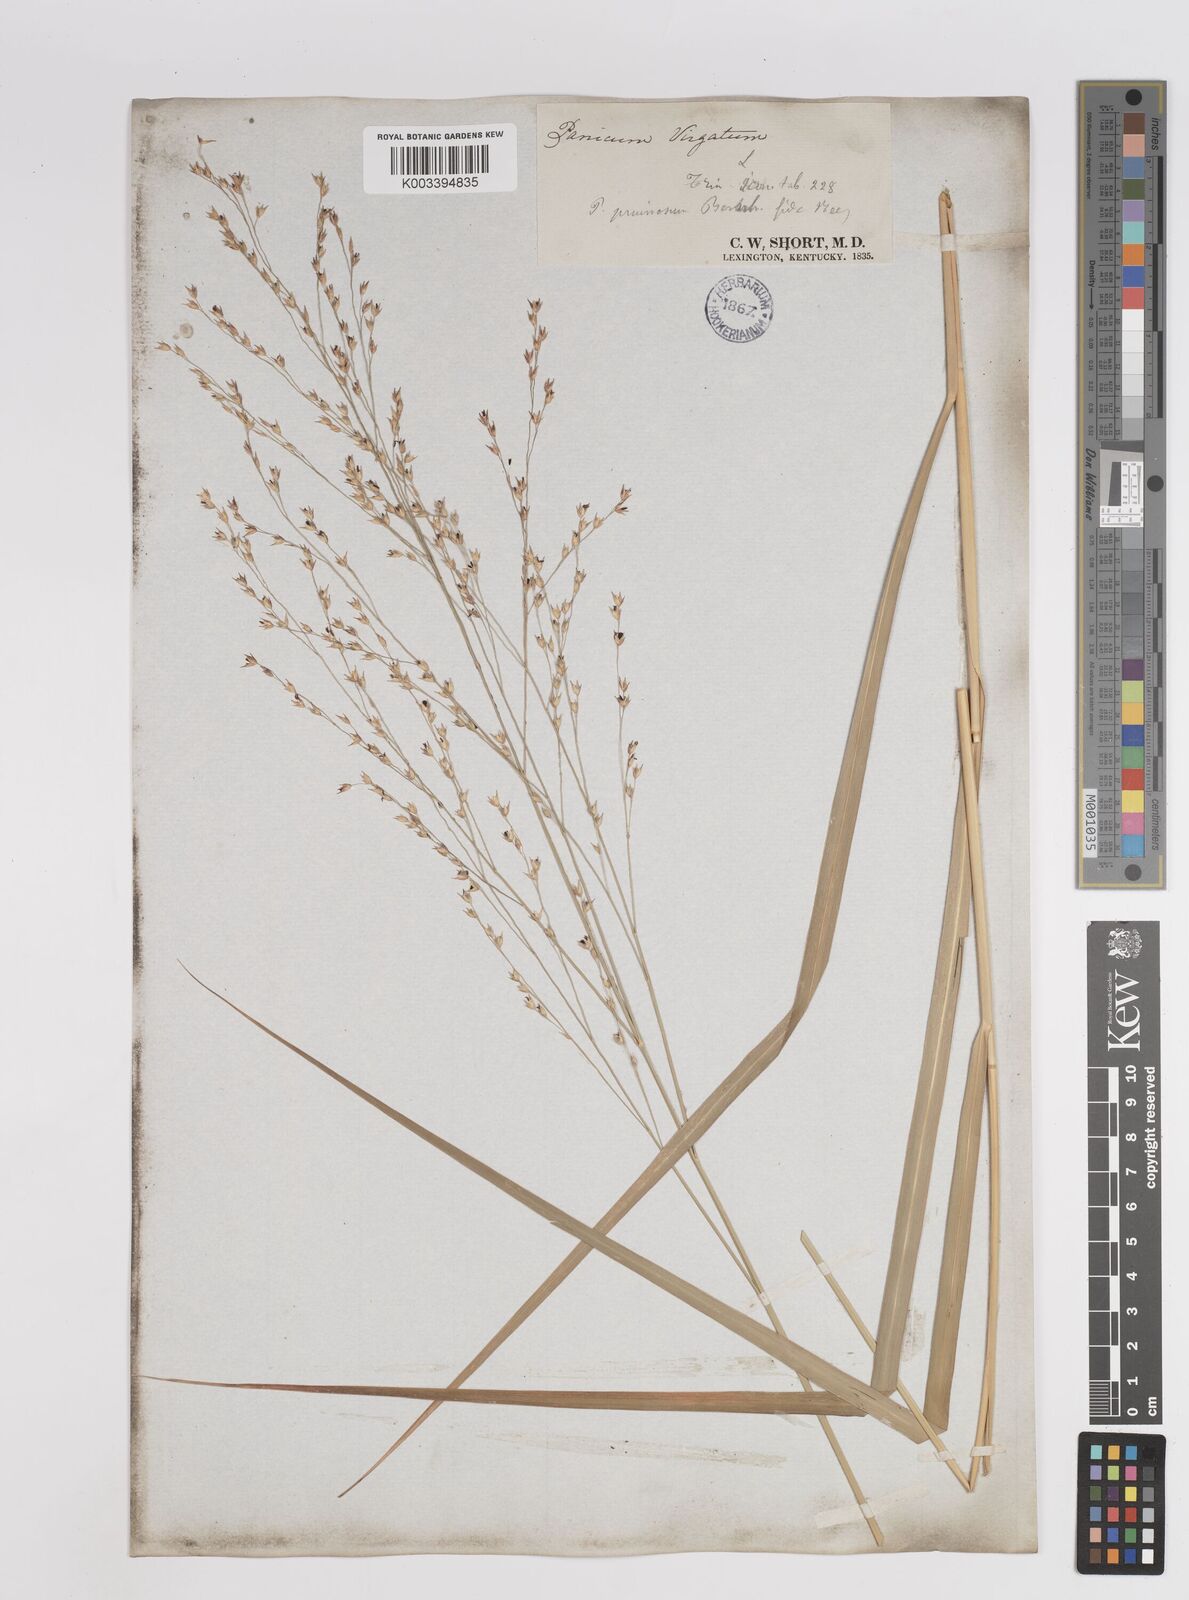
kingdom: Plantae
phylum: Tracheophyta
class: Liliopsida
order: Poales
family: Poaceae
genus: Panicum
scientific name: Panicum virgatum
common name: Switchgrass
